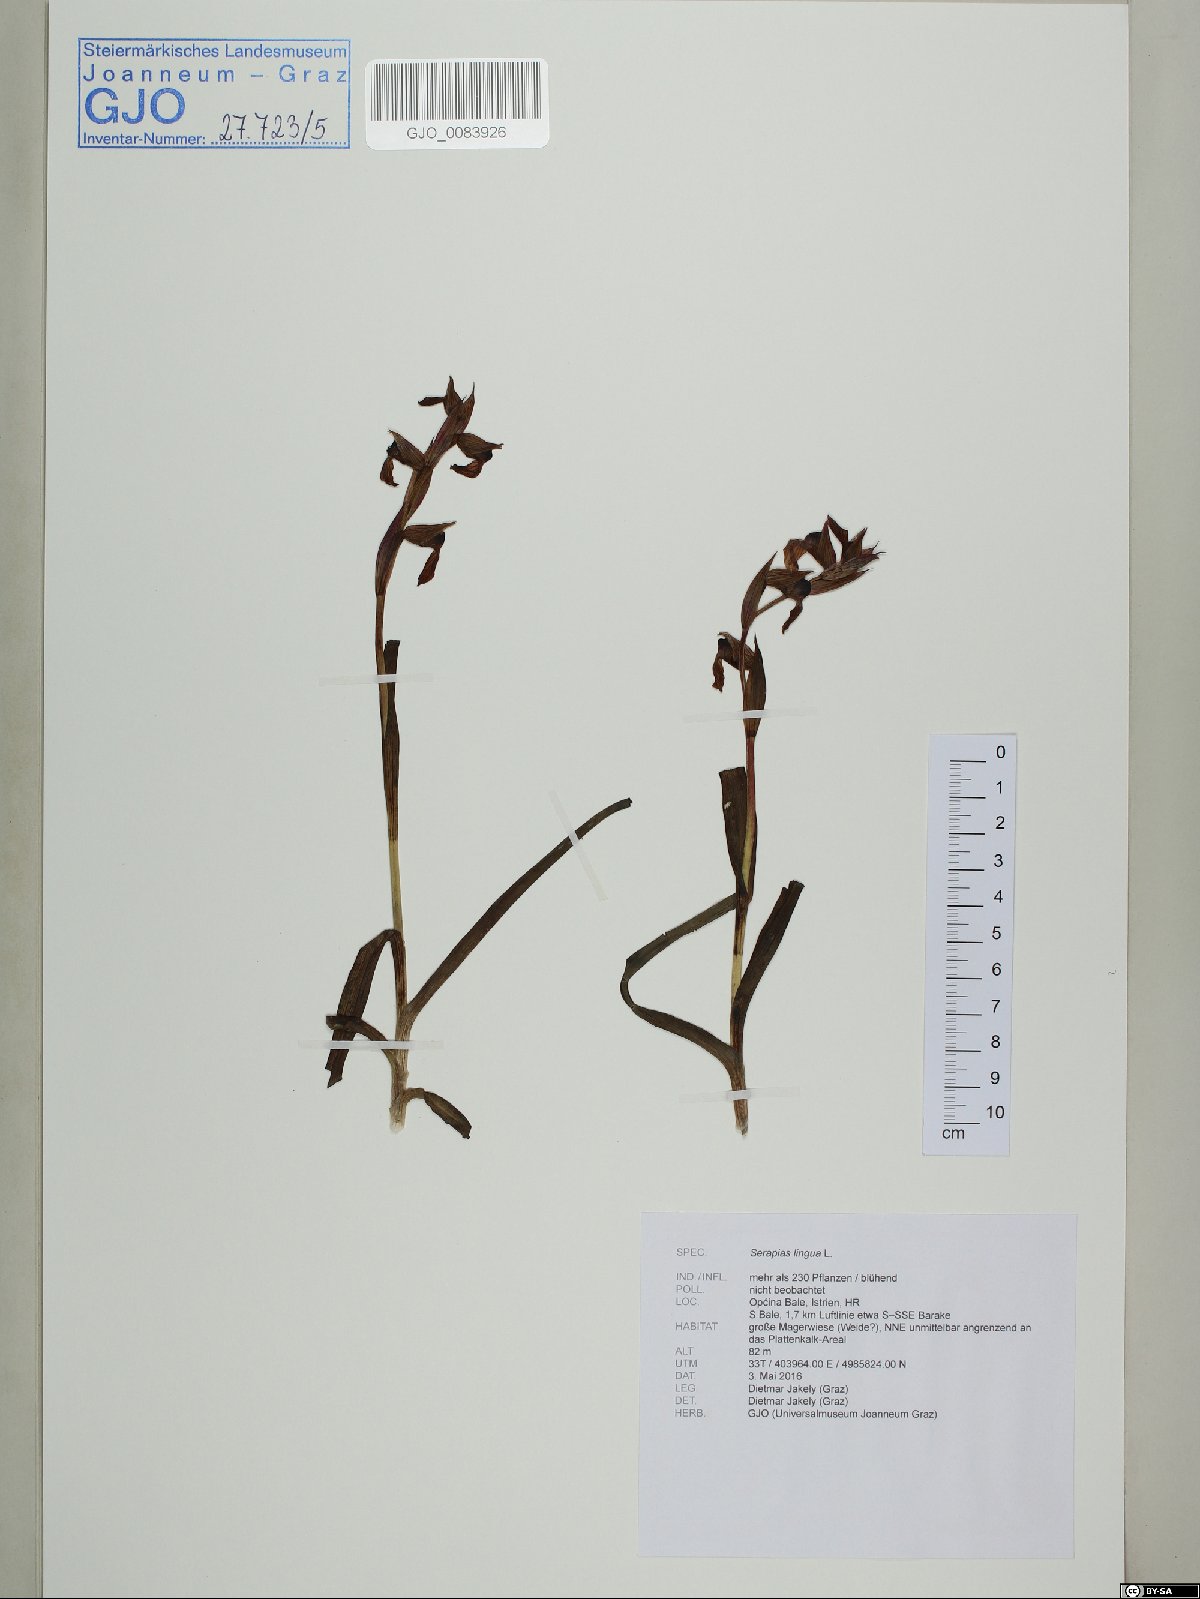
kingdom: Plantae
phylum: Tracheophyta
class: Liliopsida
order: Asparagales
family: Orchidaceae
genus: Serapias
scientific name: Serapias lingua
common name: Tongue-orchid
